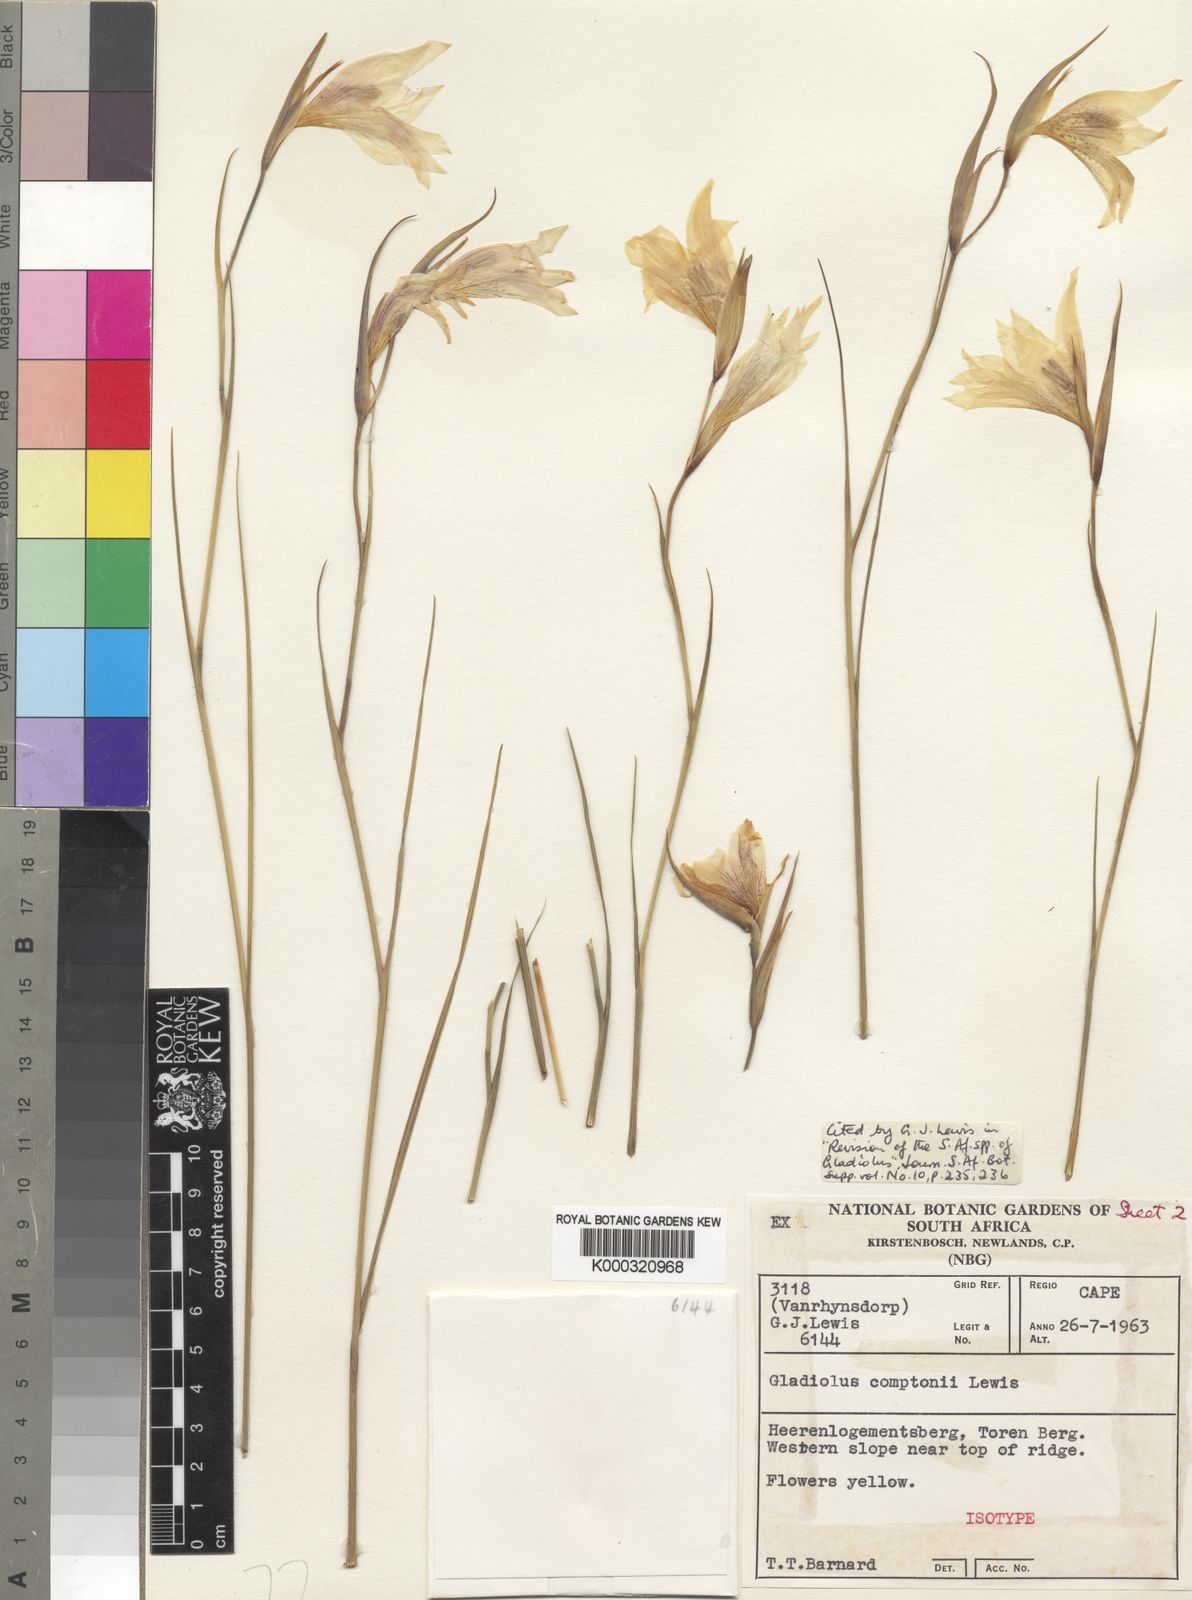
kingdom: Plantae
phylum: Tracheophyta
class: Liliopsida
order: Asparagales
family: Iridaceae
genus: Gladiolus
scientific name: Gladiolus comptonii
